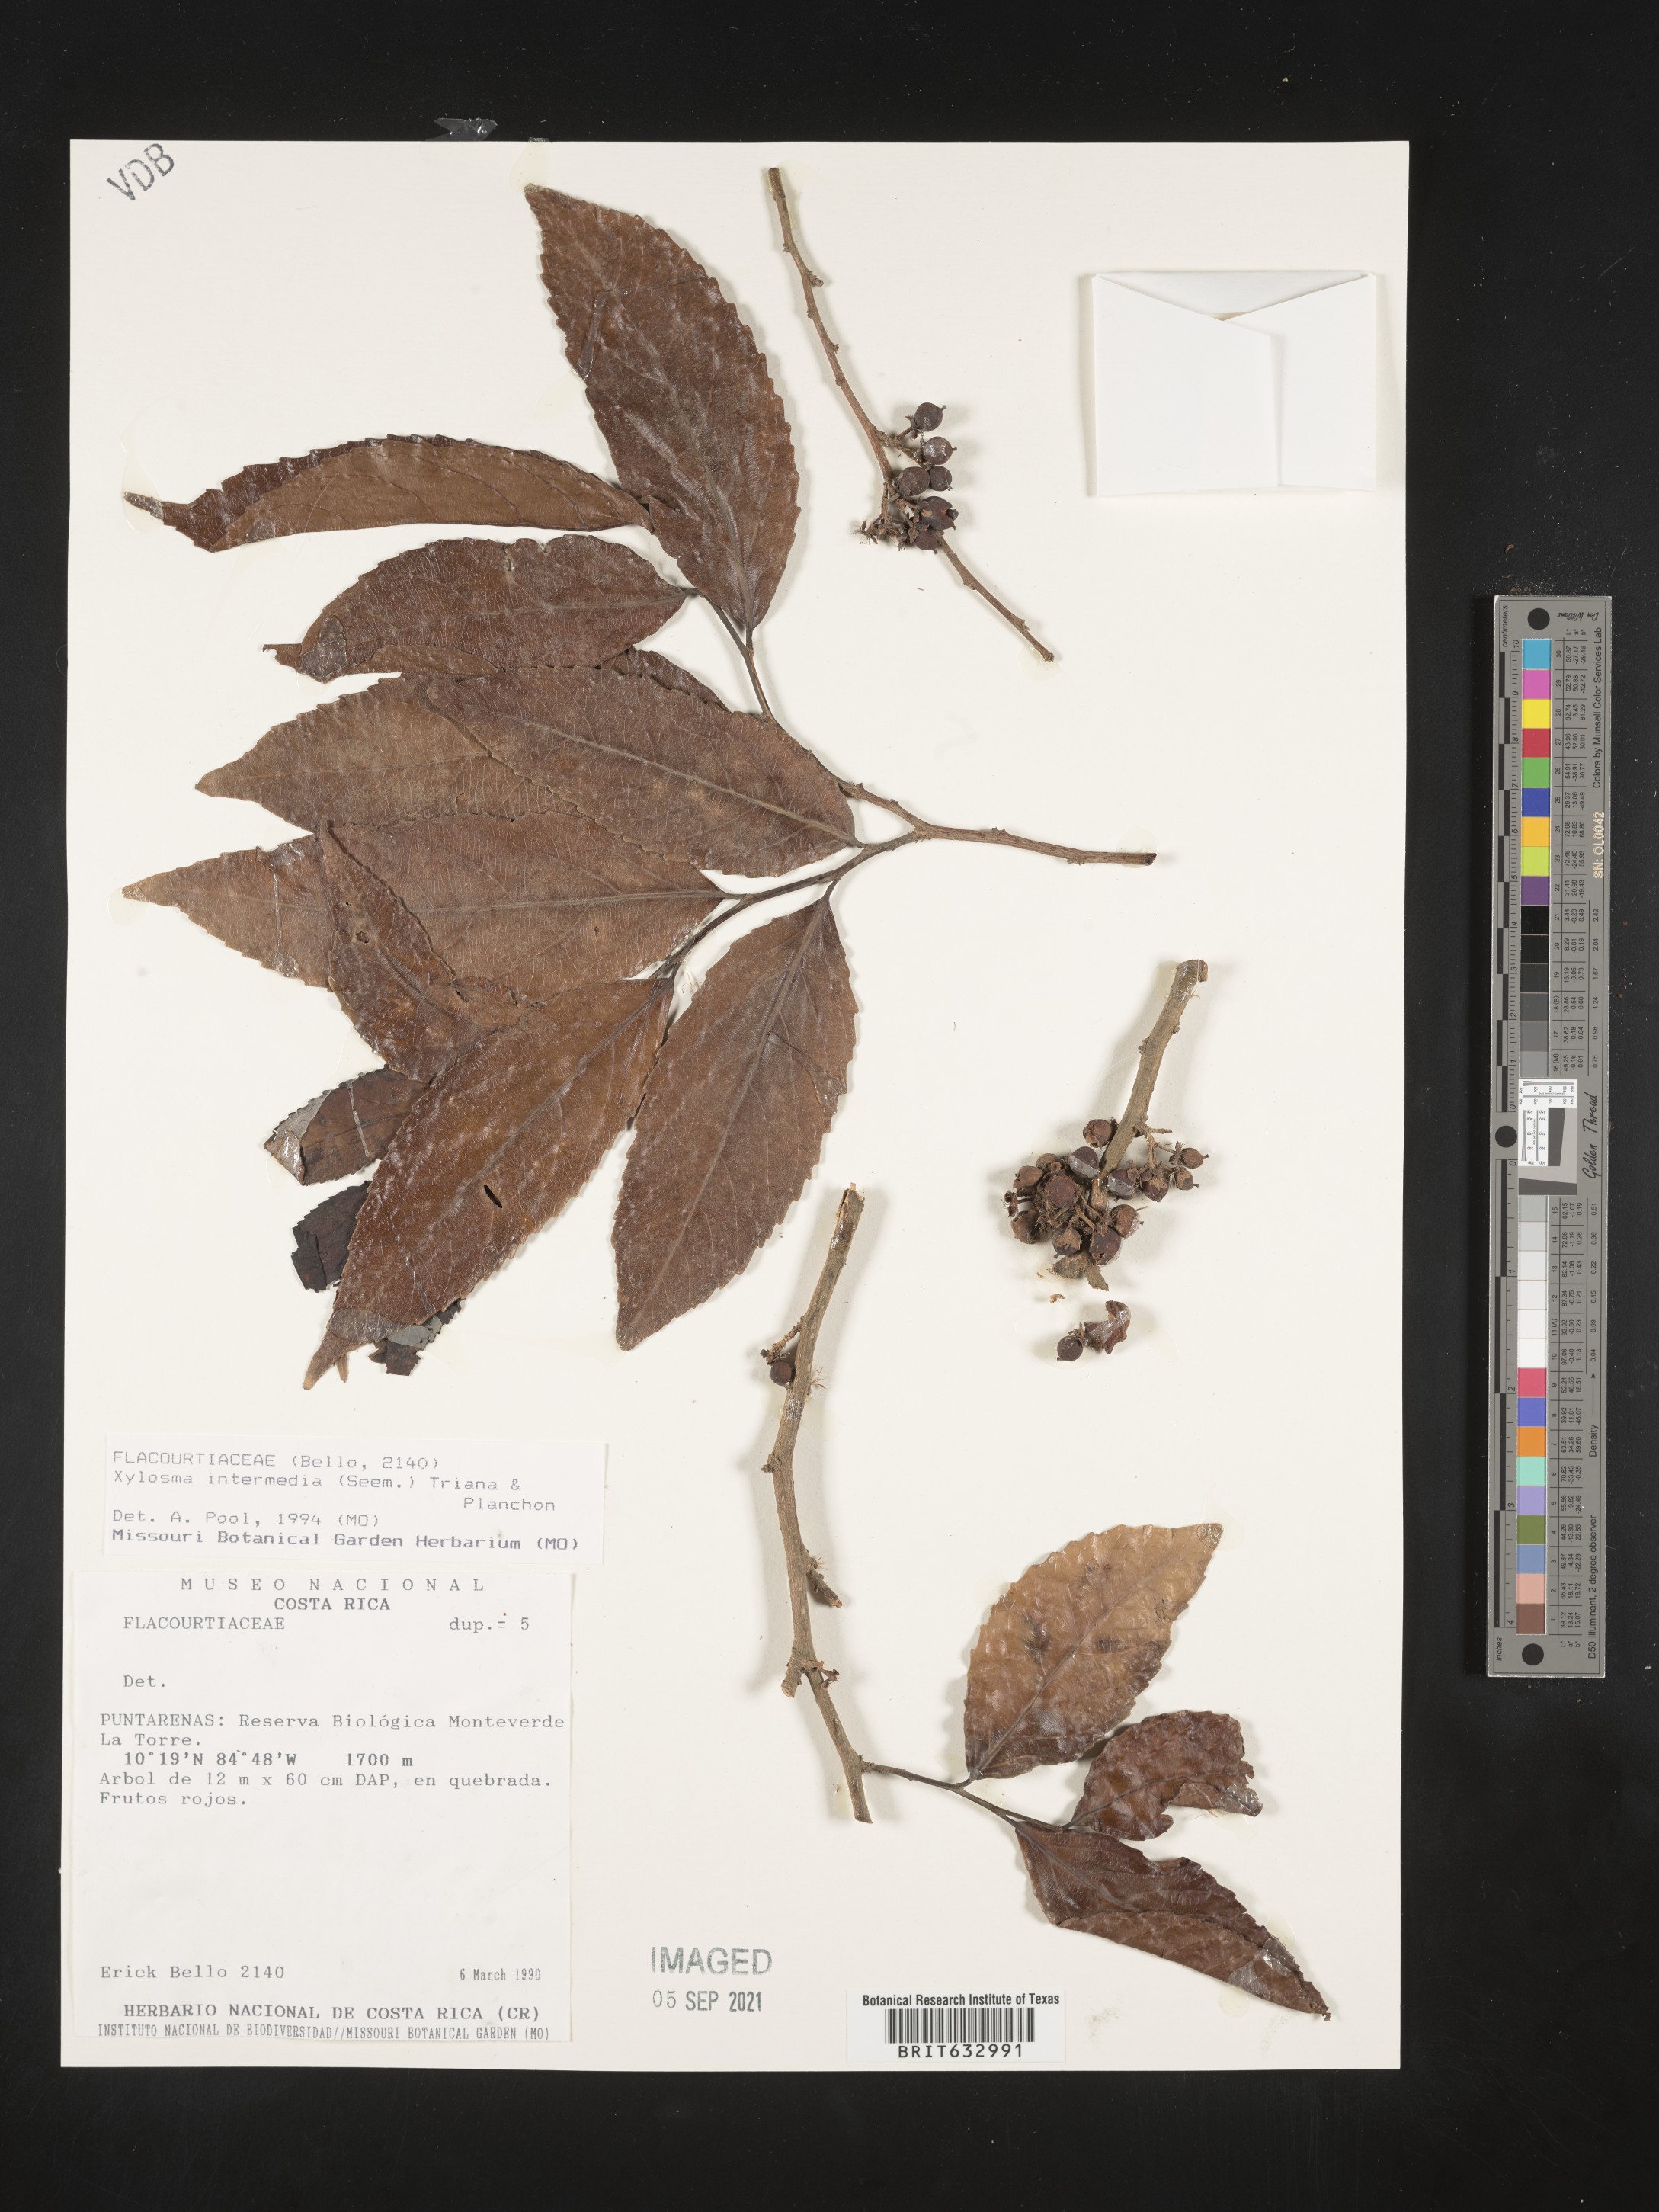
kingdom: Plantae
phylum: Tracheophyta
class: Magnoliopsida
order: Malpighiales
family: Salicaceae
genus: Xylosma
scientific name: Xylosma
